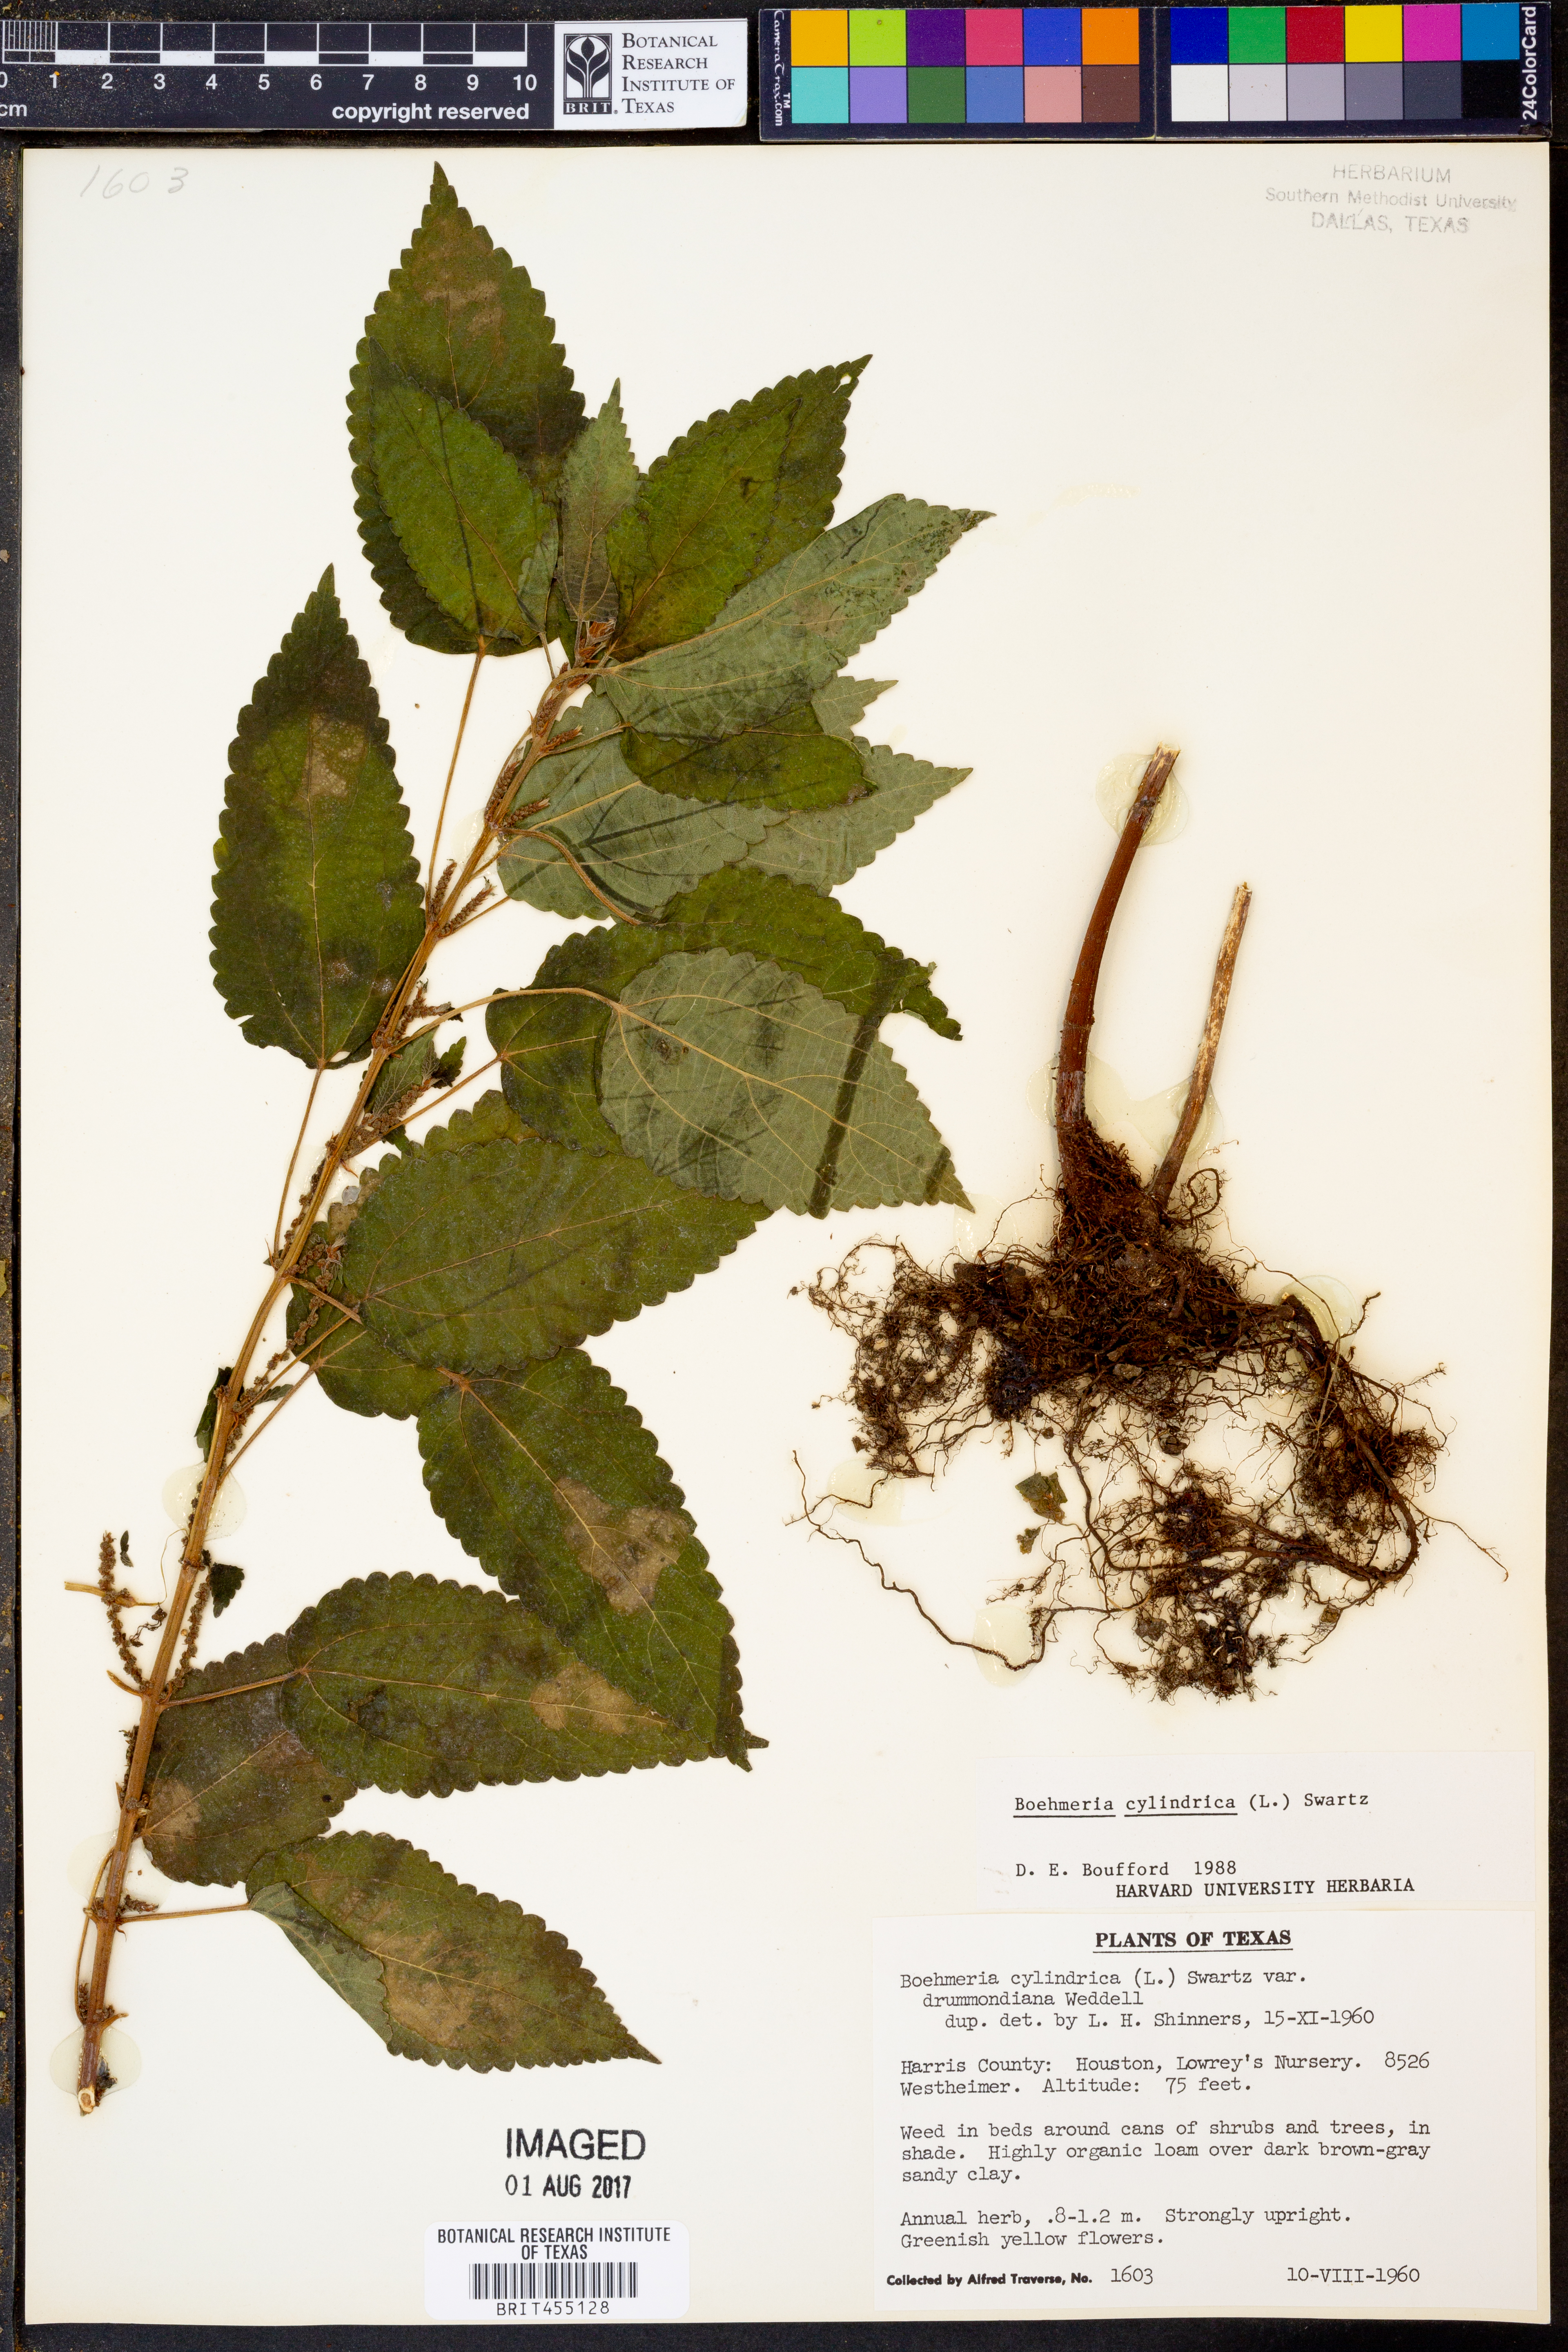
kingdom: Plantae
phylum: Tracheophyta
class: Magnoliopsida
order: Rosales
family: Urticaceae
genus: Boehmeria
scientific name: Boehmeria cylindrica
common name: Bog-hemp
